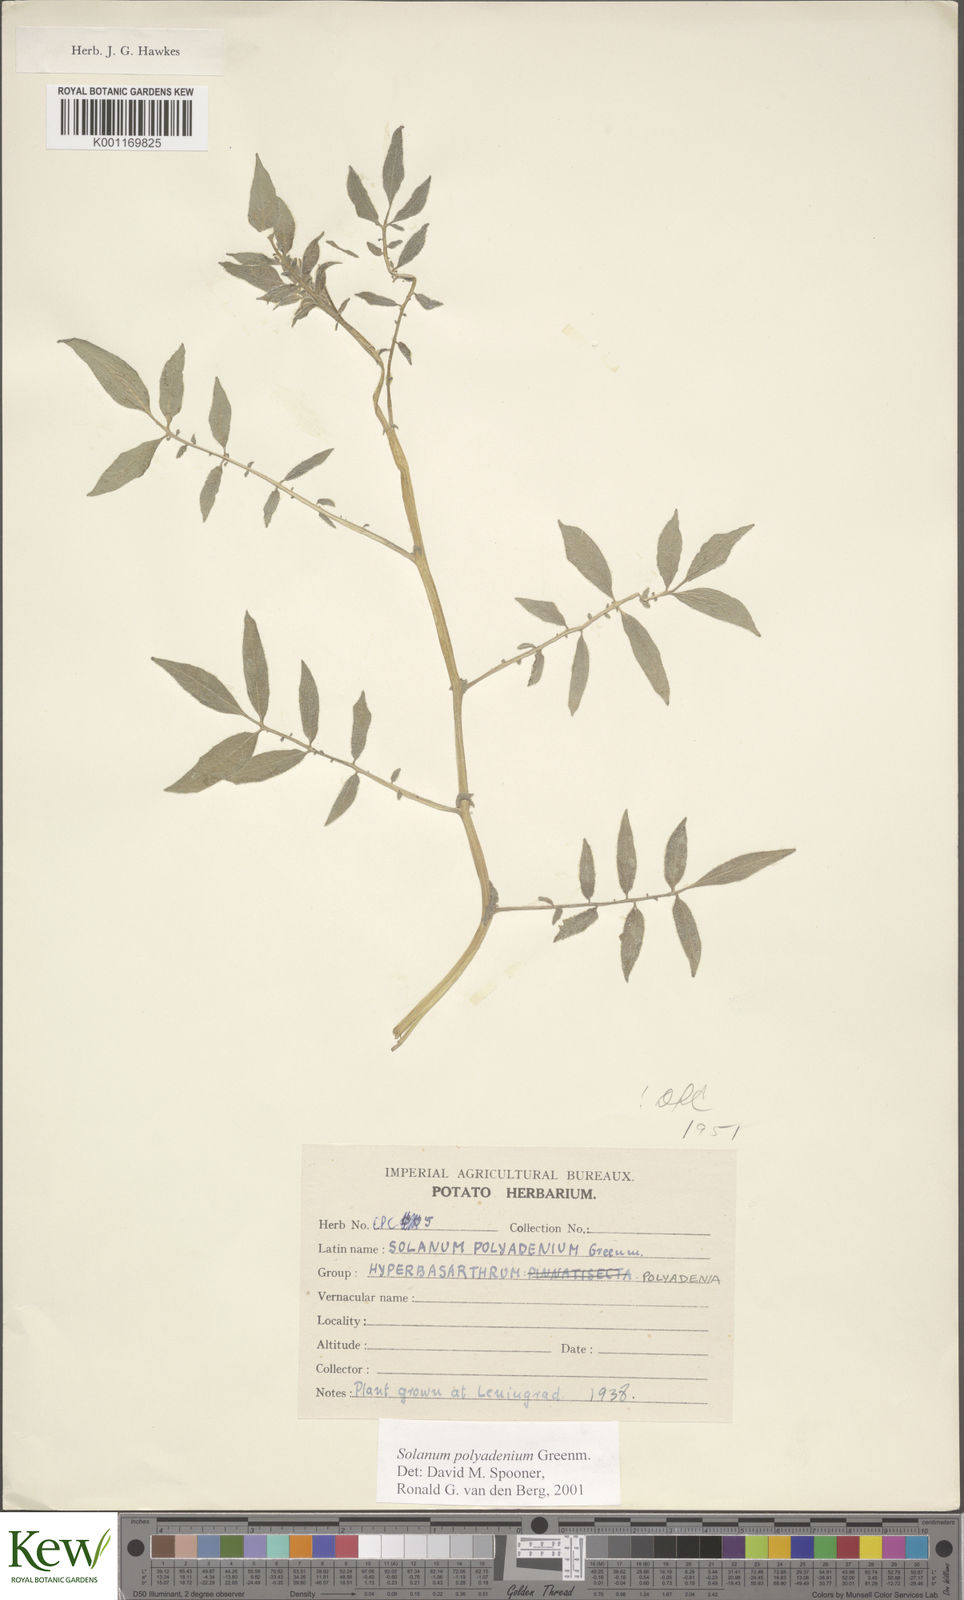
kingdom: Plantae
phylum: Tracheophyta
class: Magnoliopsida
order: Solanales
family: Solanaceae
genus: Solanum
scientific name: Solanum pseudocapsicum
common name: Jerusalem cherry
